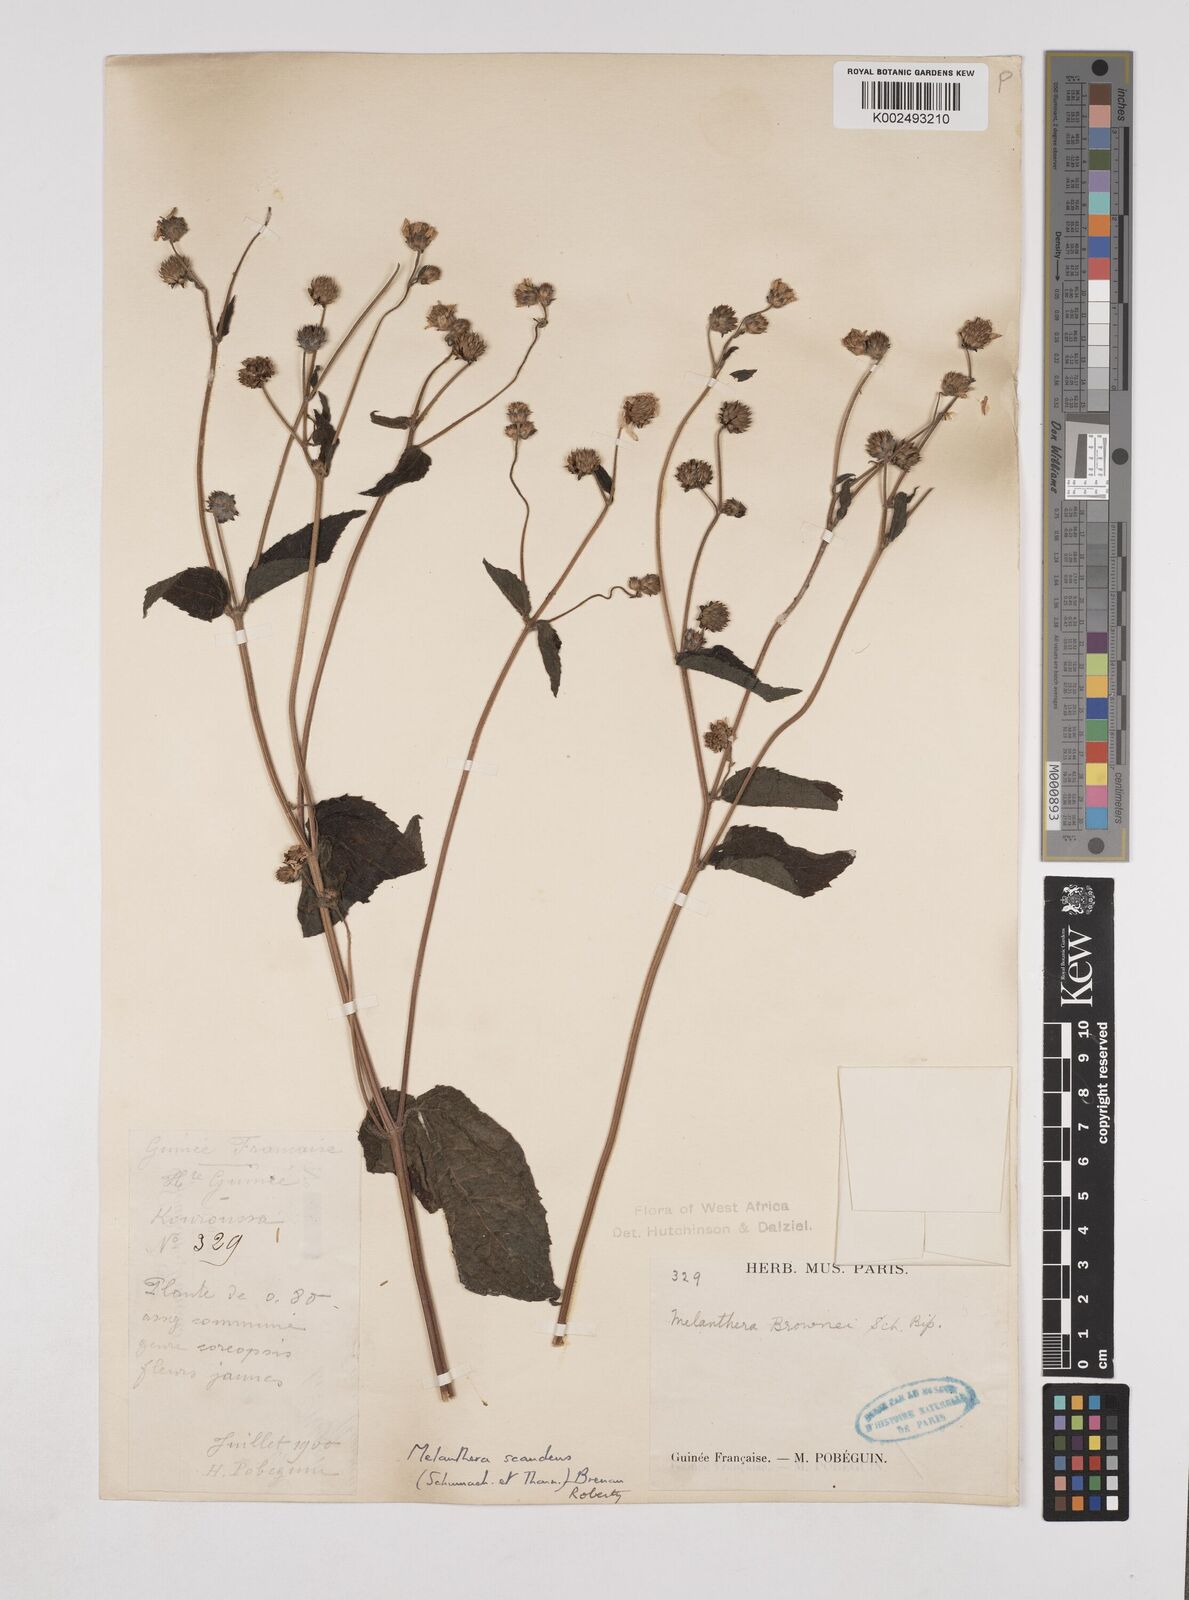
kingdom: Plantae
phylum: Tracheophyta
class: Magnoliopsida
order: Asterales
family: Asteraceae
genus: Lipotriche
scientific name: Lipotriche abyssinica
